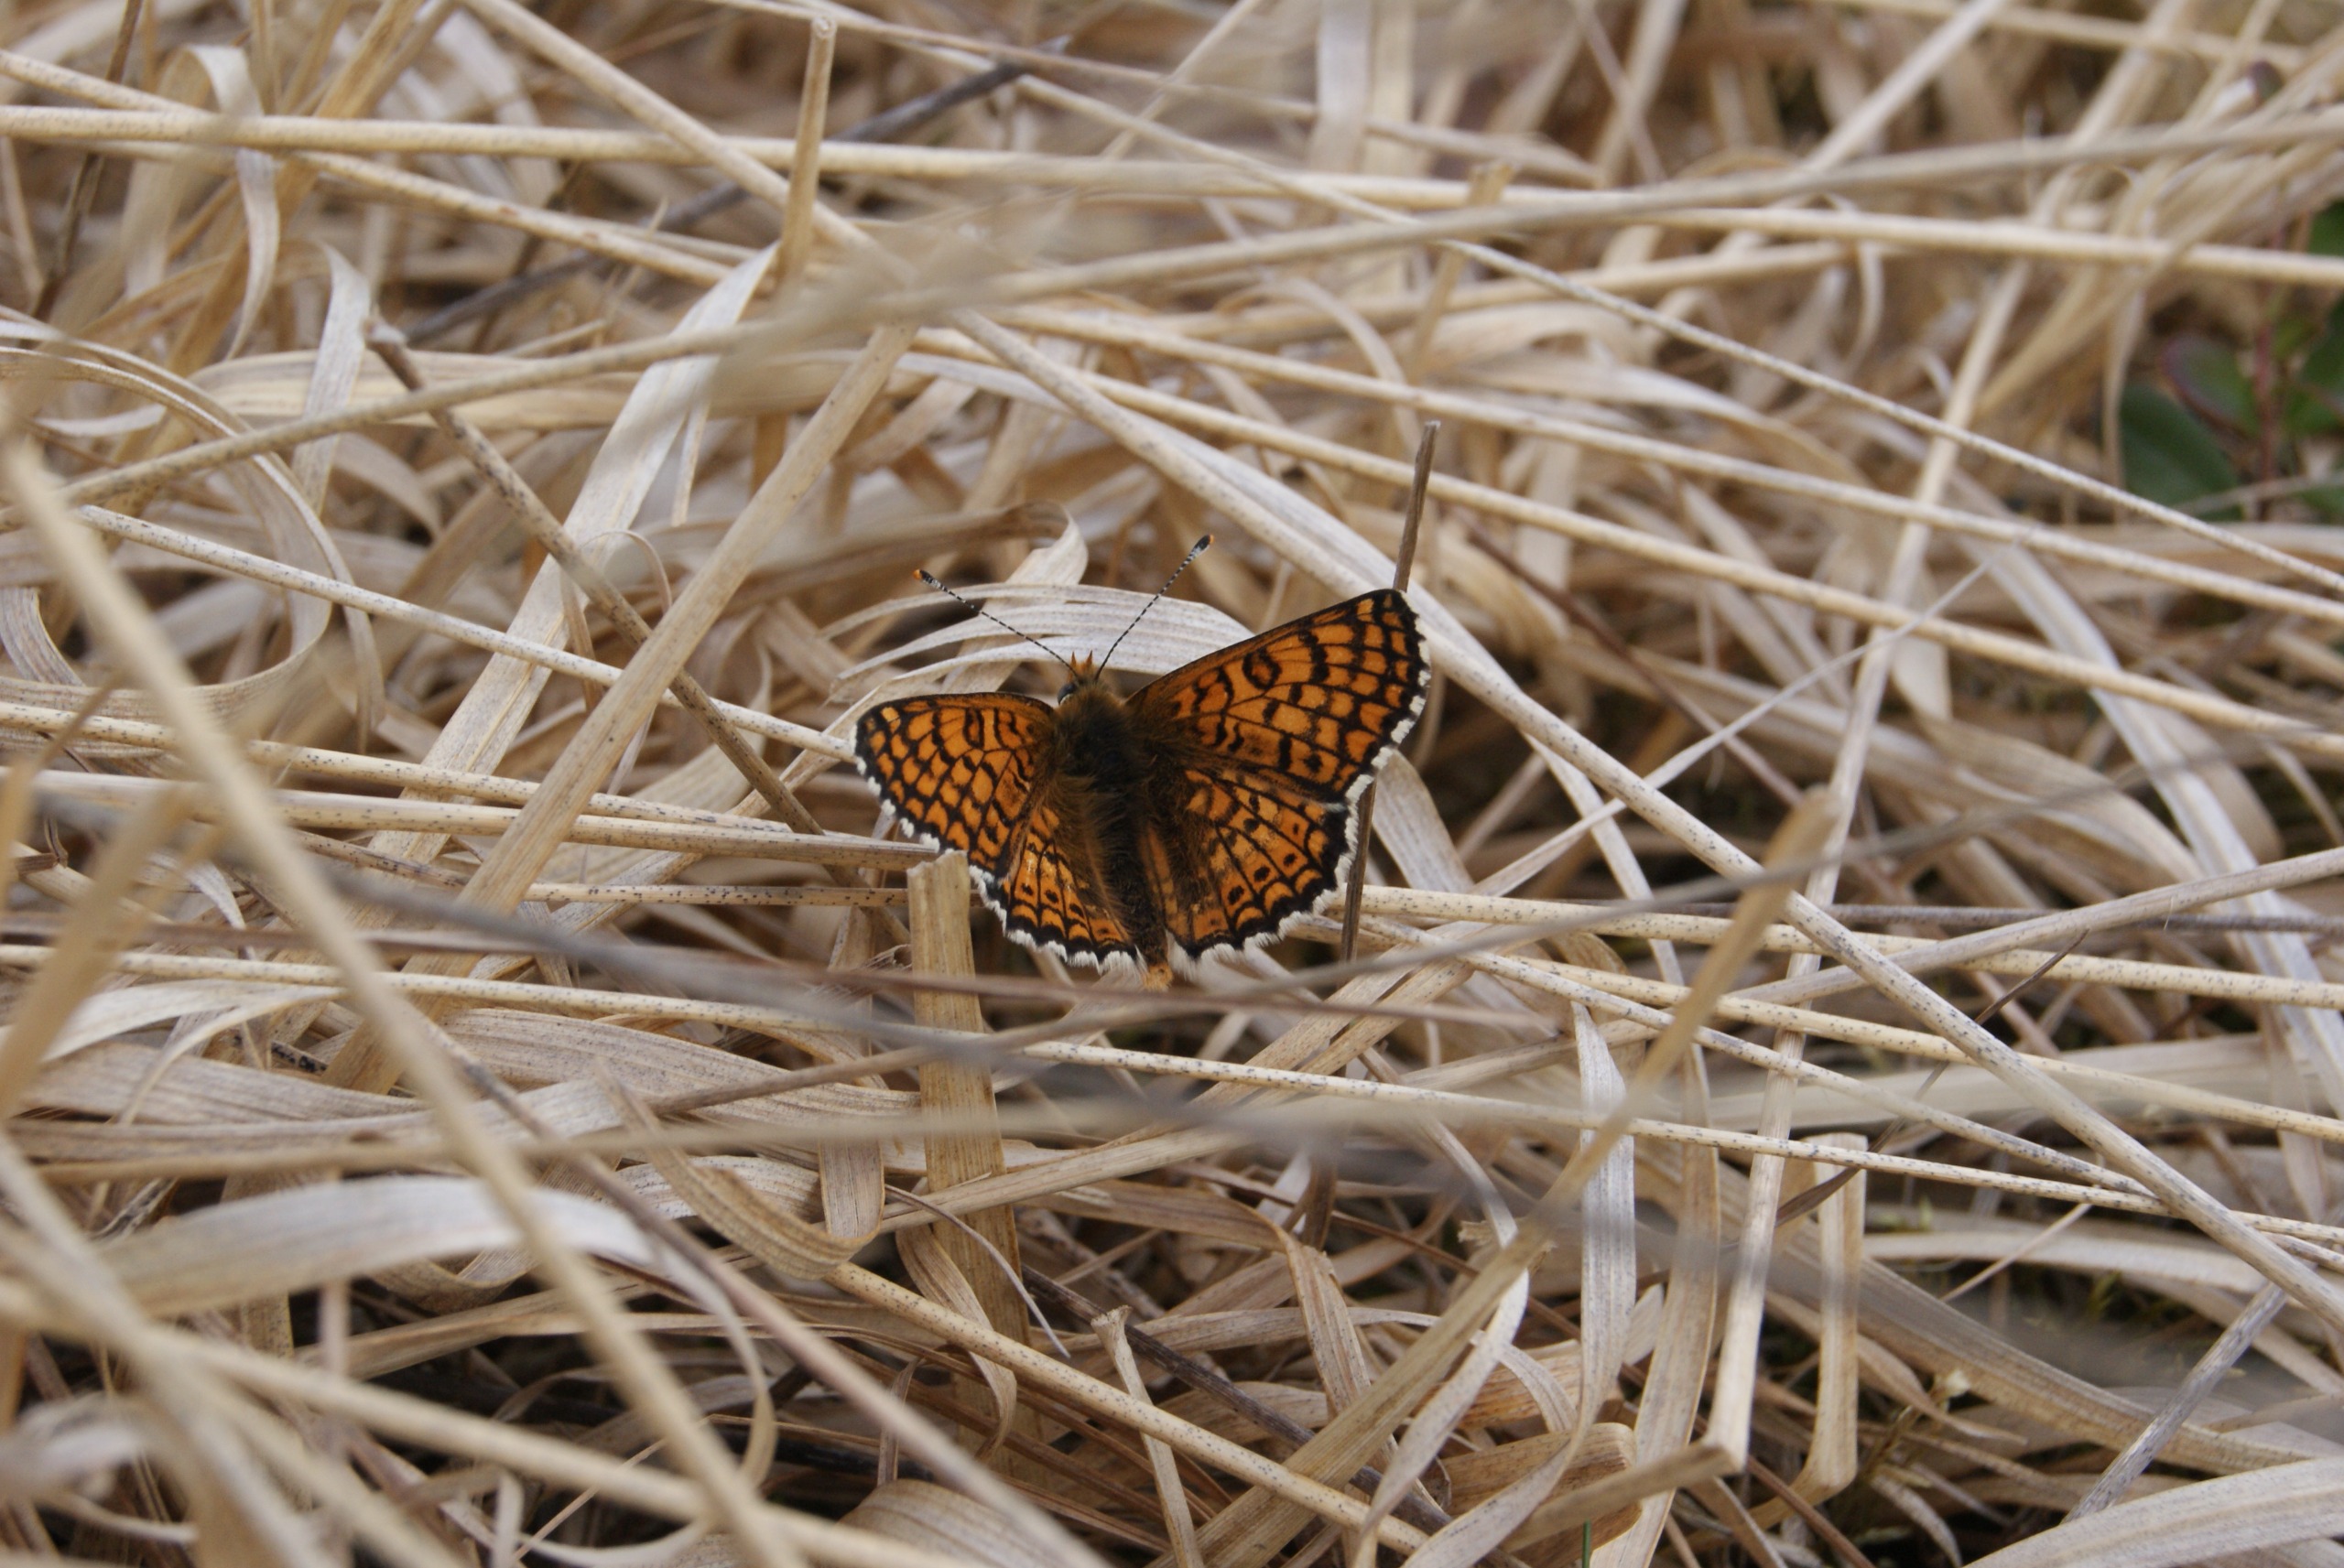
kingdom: Animalia
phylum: Arthropoda
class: Insecta
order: Lepidoptera
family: Nymphalidae
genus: Melitaea
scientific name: Melitaea cinxia
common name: Okkergul pletvinge
